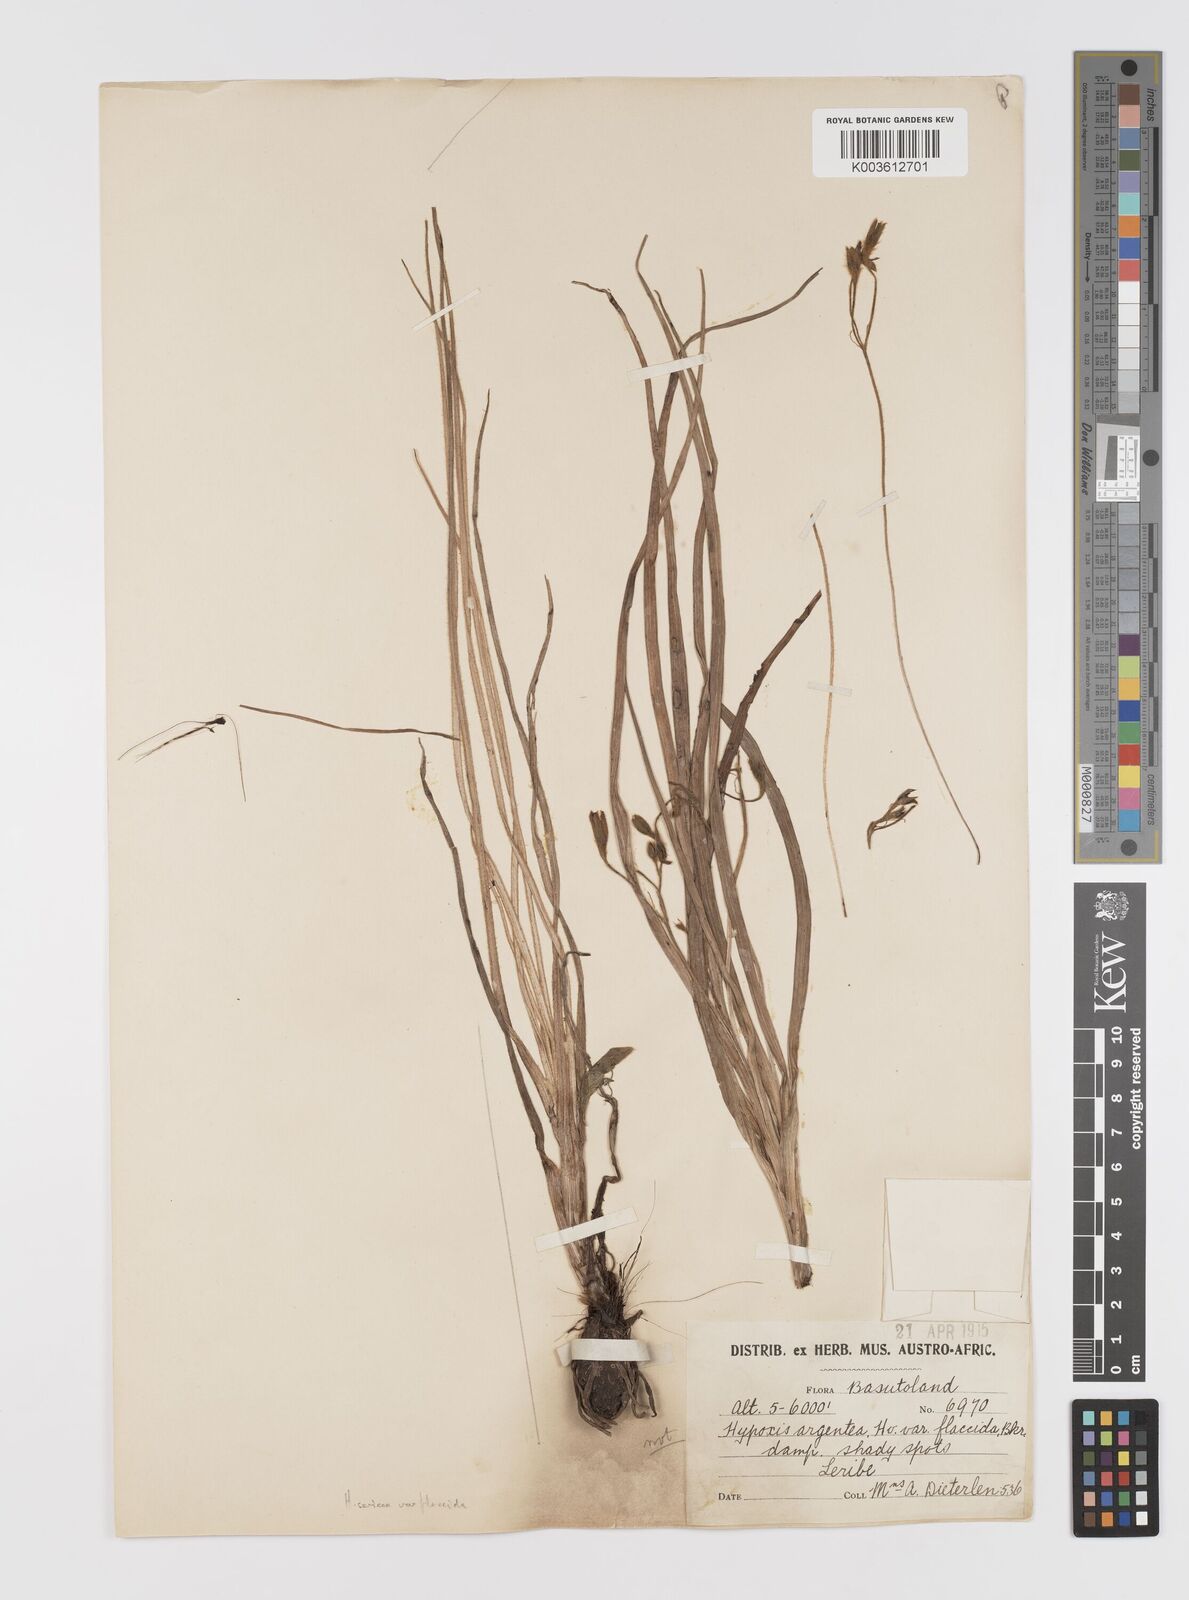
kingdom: Plantae
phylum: Tracheophyta
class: Liliopsida
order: Asparagales
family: Hypoxidaceae
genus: Hypoxis
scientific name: Hypoxis argentea
